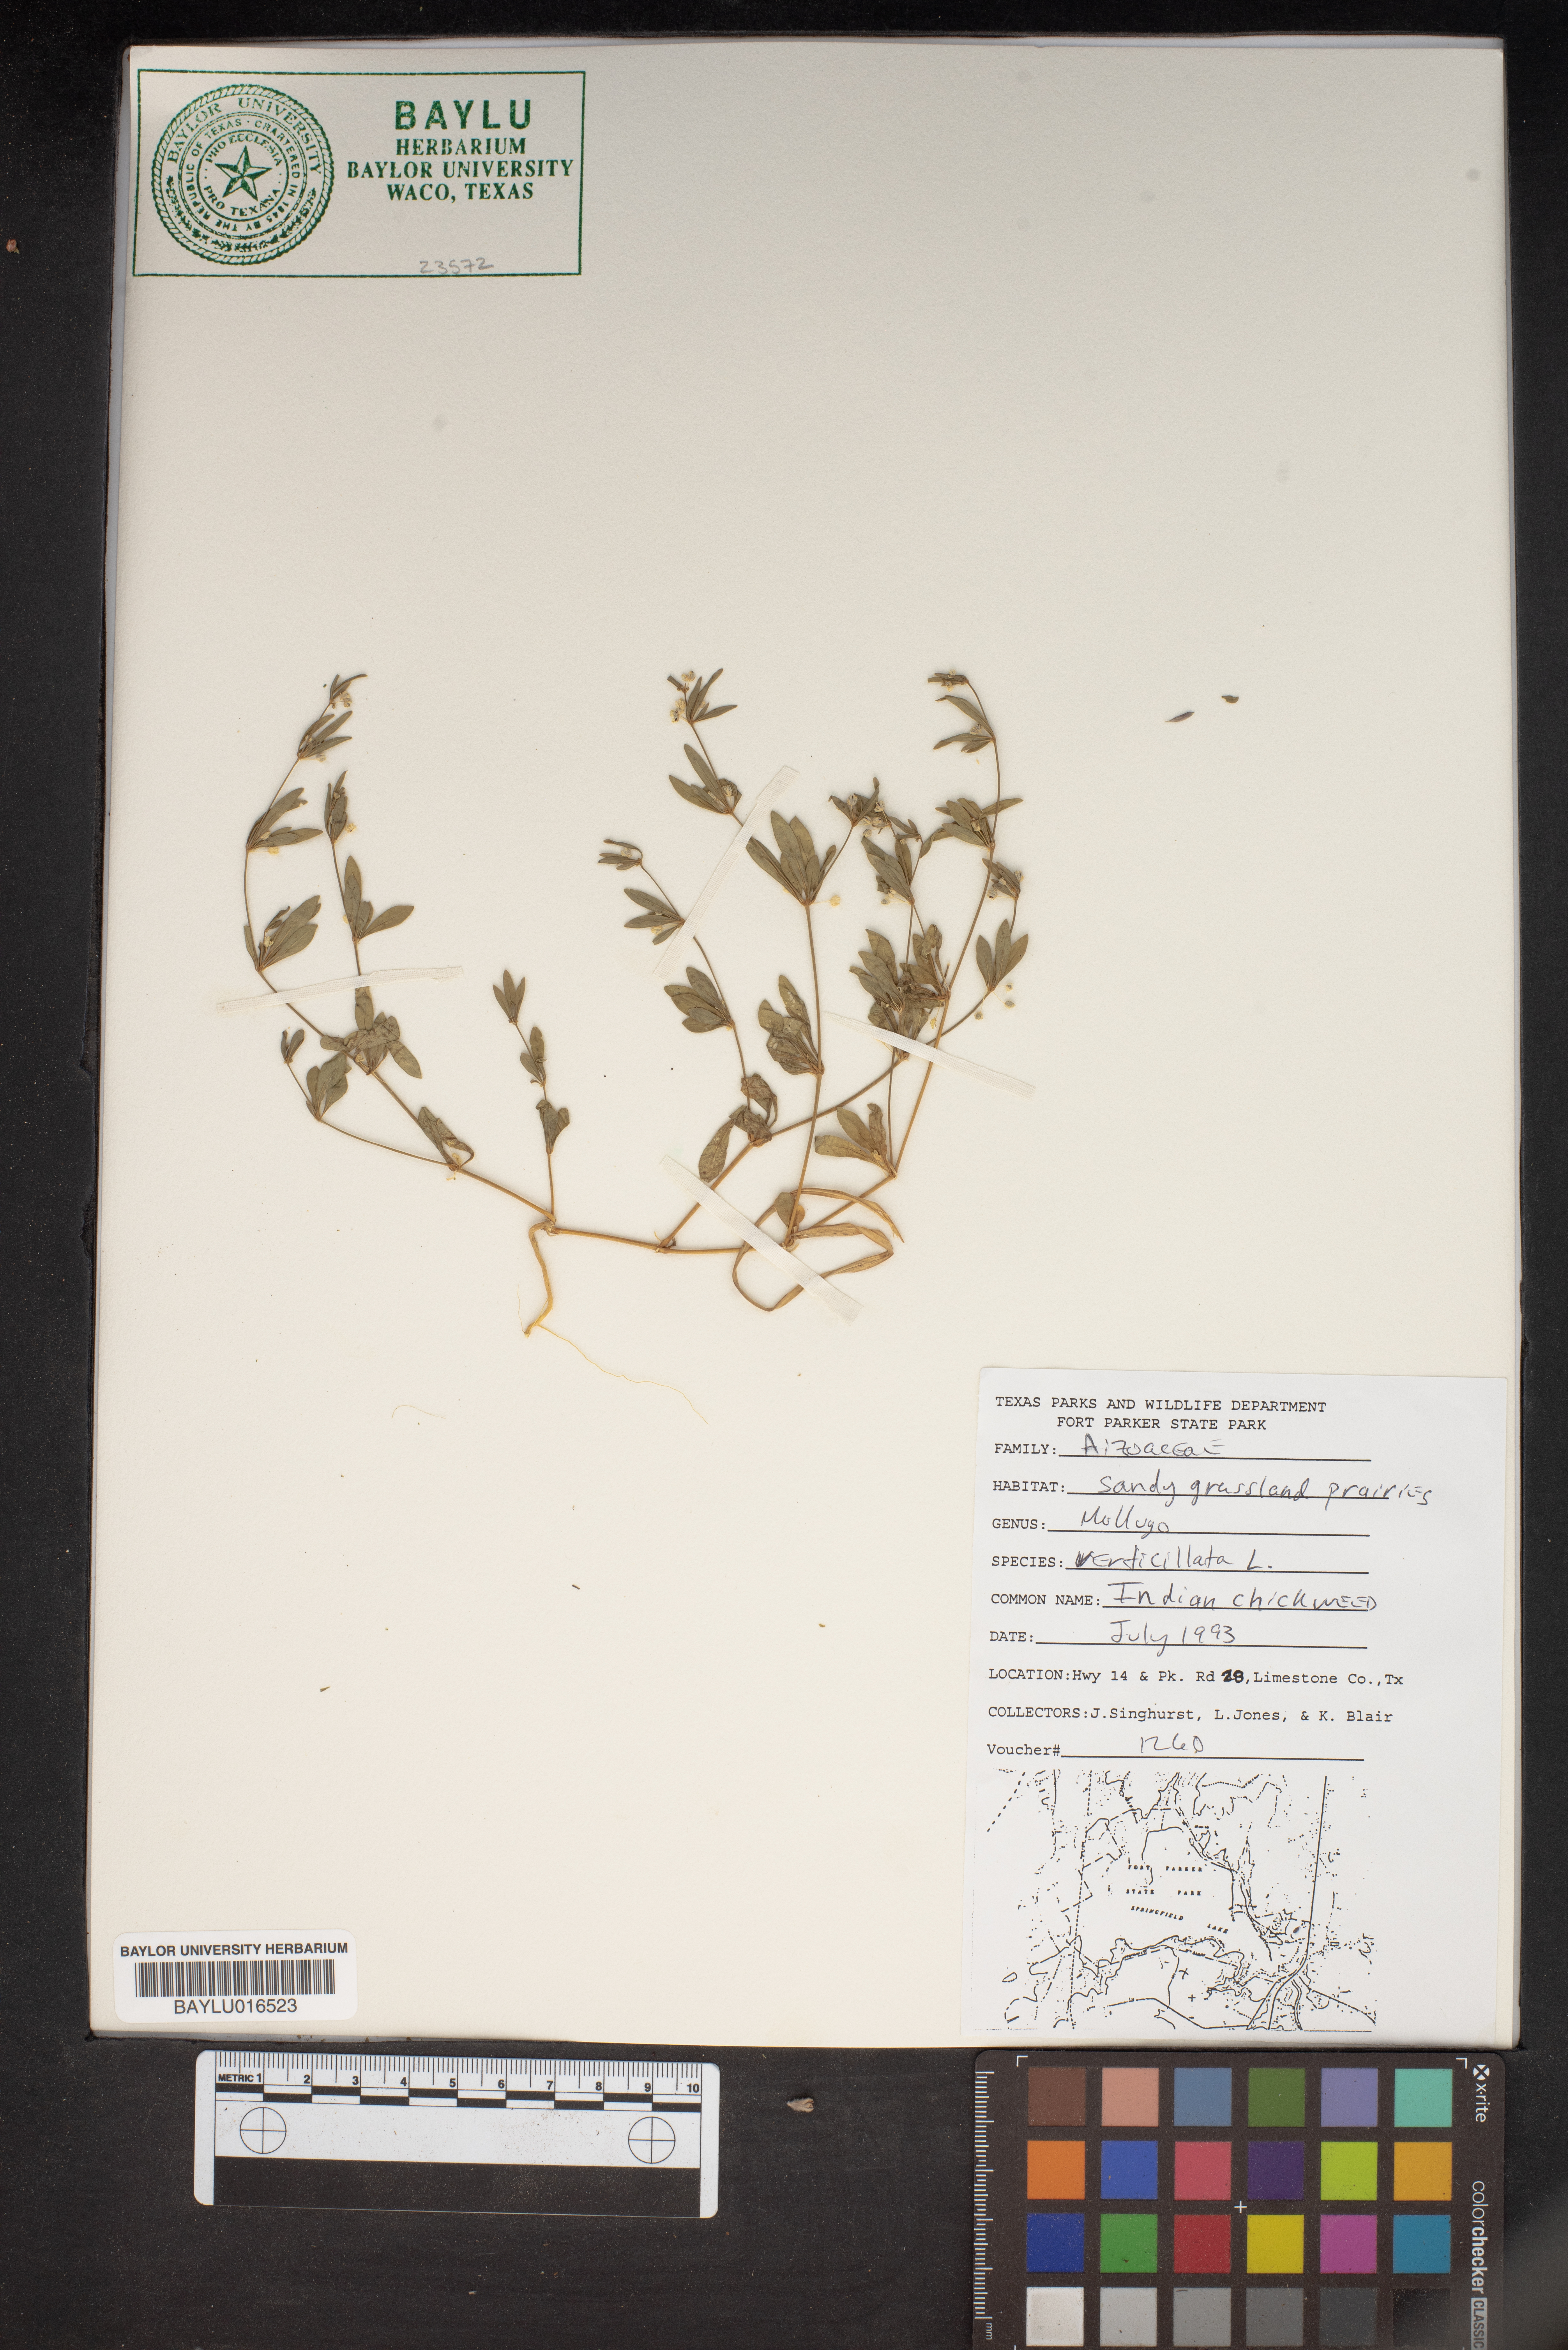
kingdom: Plantae
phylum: Tracheophyta
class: Magnoliopsida
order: Caryophyllales
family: Molluginaceae
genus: Mollugo
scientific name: Mollugo verticillata
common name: Green carpetweed
